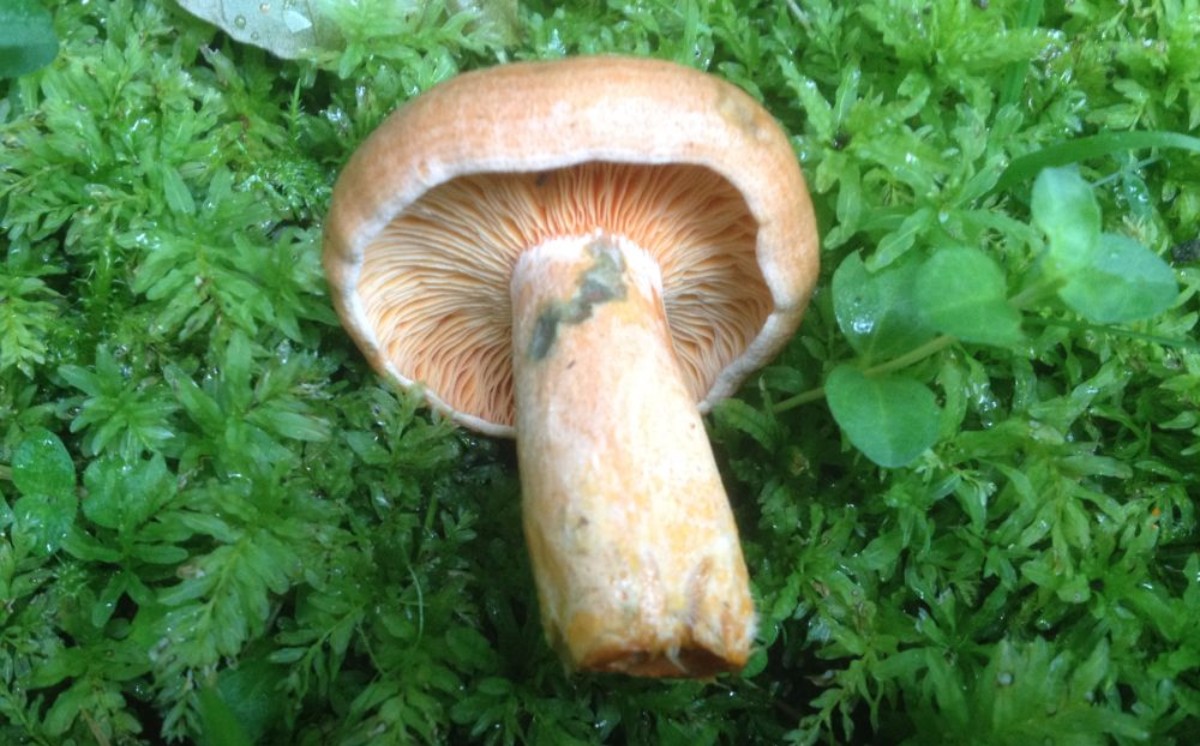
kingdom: Fungi
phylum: Basidiomycota
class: Agaricomycetes
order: Russulales
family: Russulaceae
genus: Lactarius
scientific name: Lactarius deterrimus
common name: gran-mælkehat
